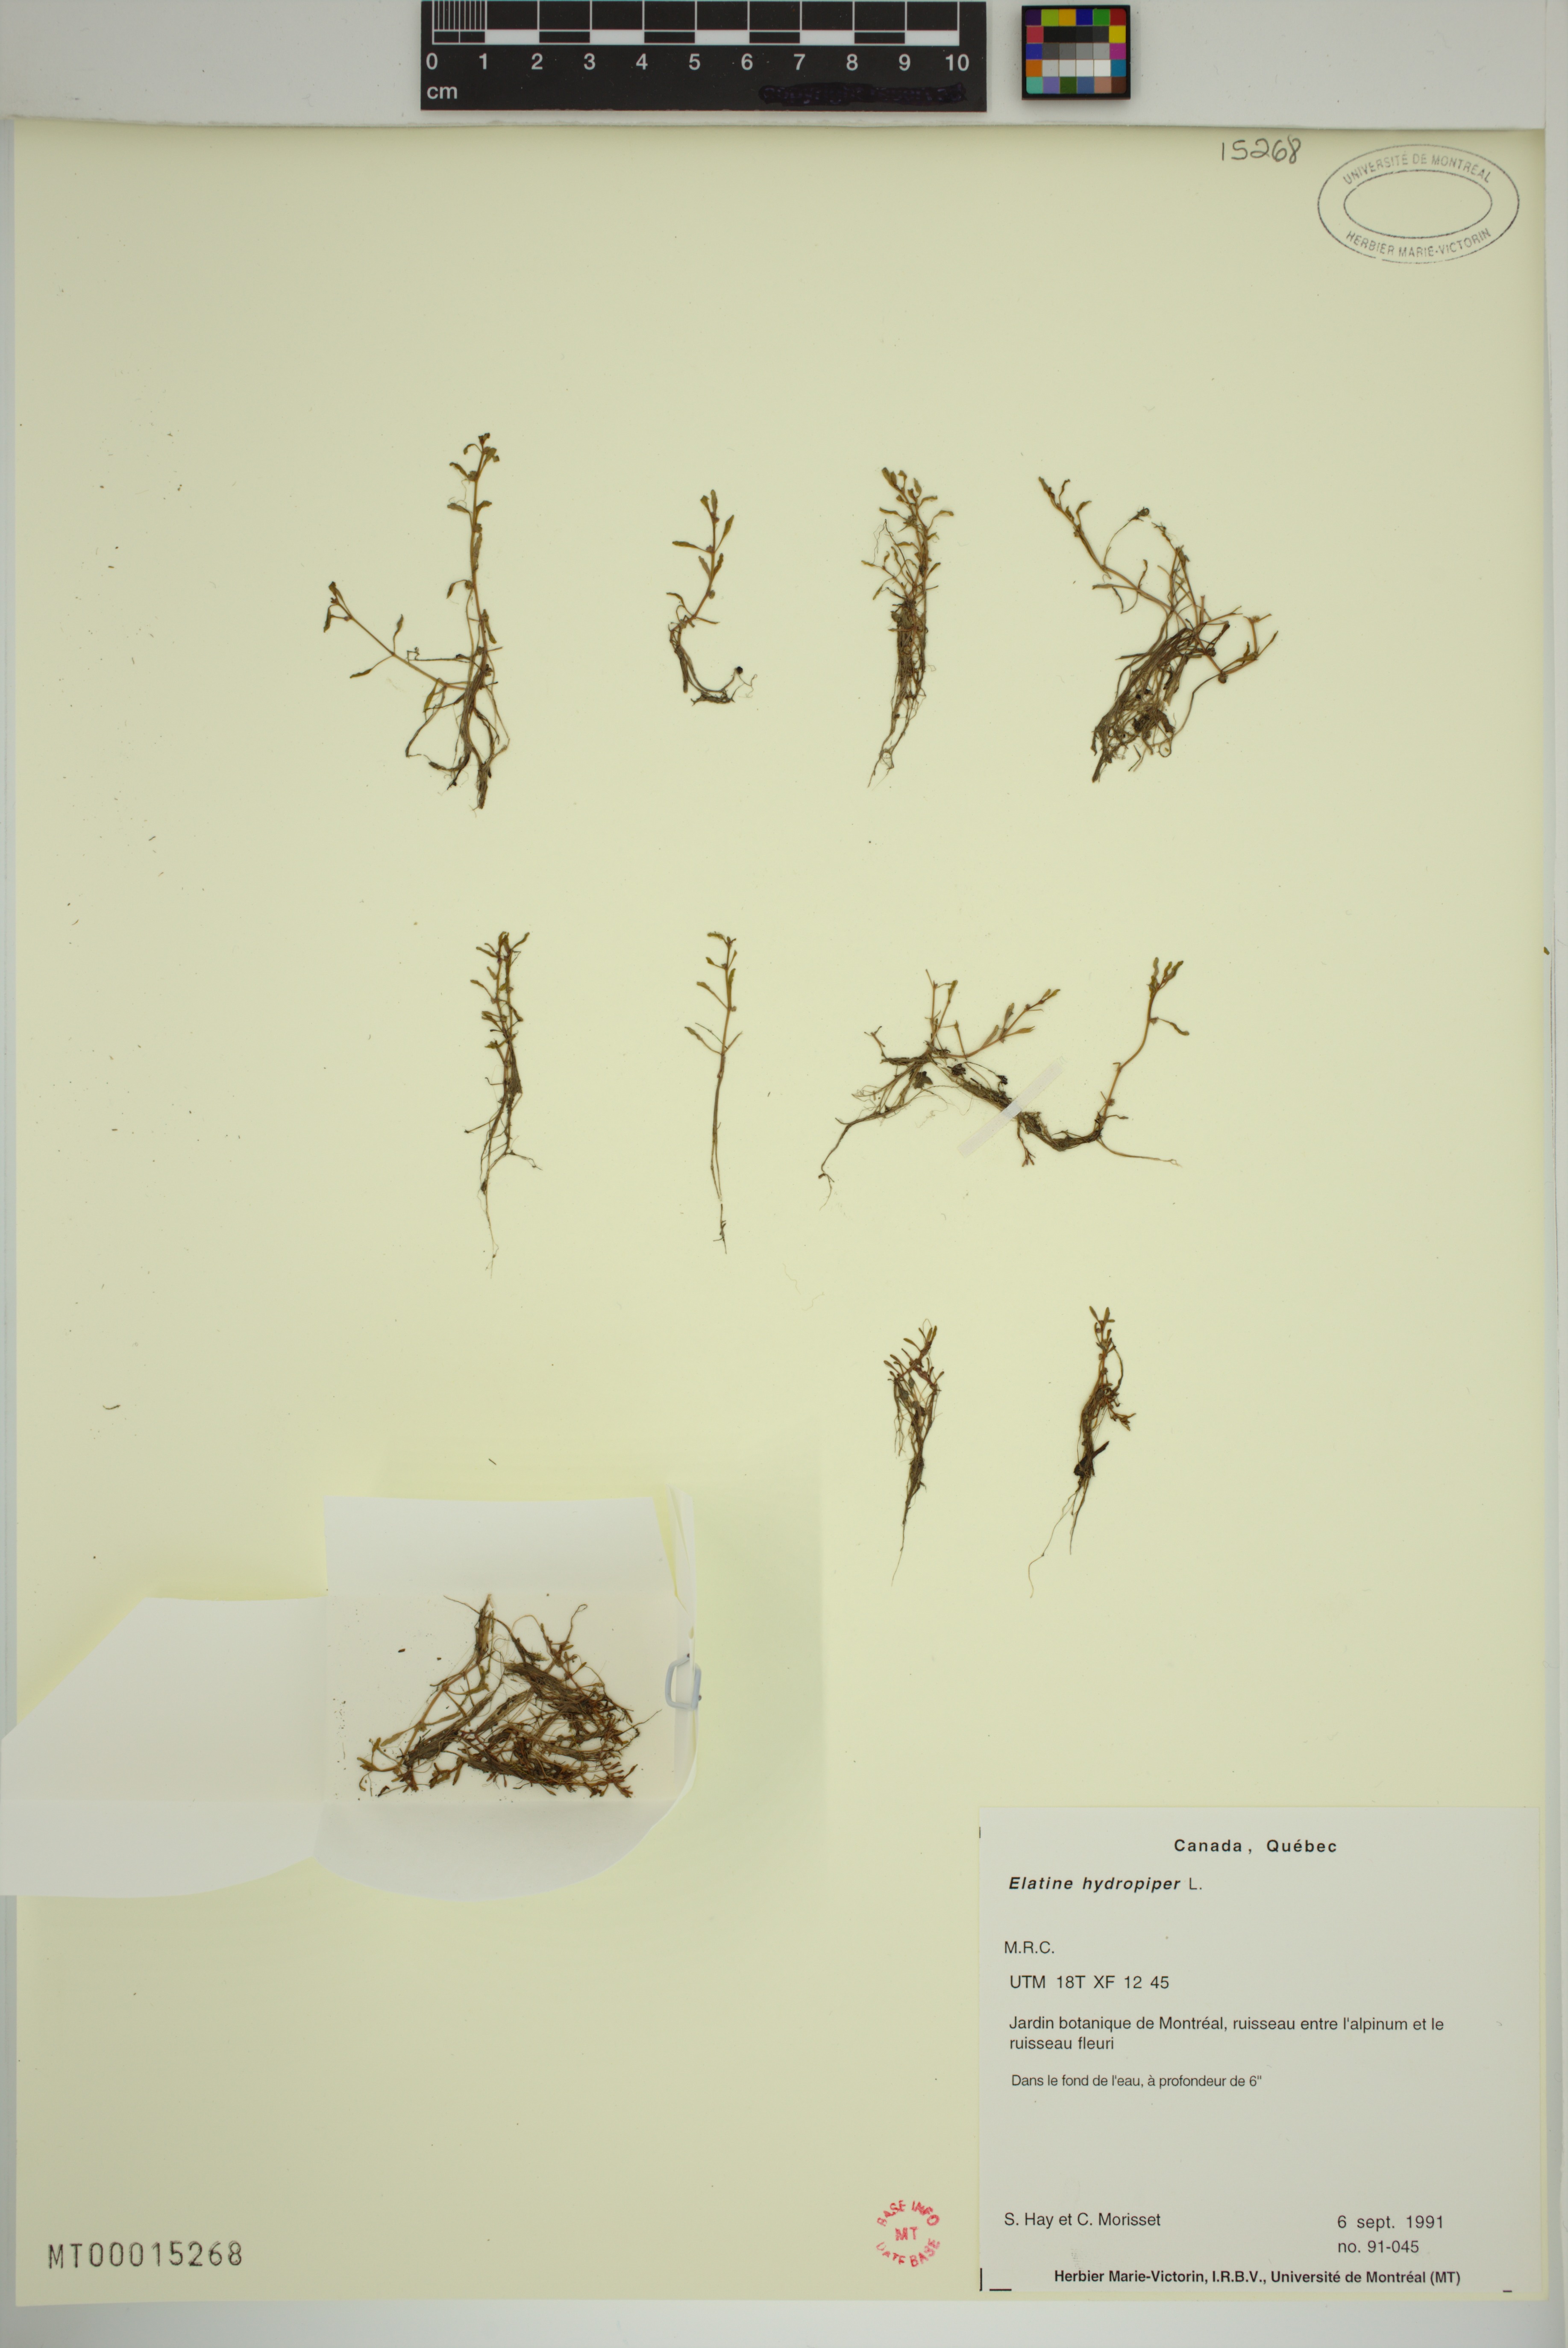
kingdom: Plantae
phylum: Tracheophyta
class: Magnoliopsida
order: Malpighiales
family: Elatinaceae
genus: Elatine
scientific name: Elatine macropoda
